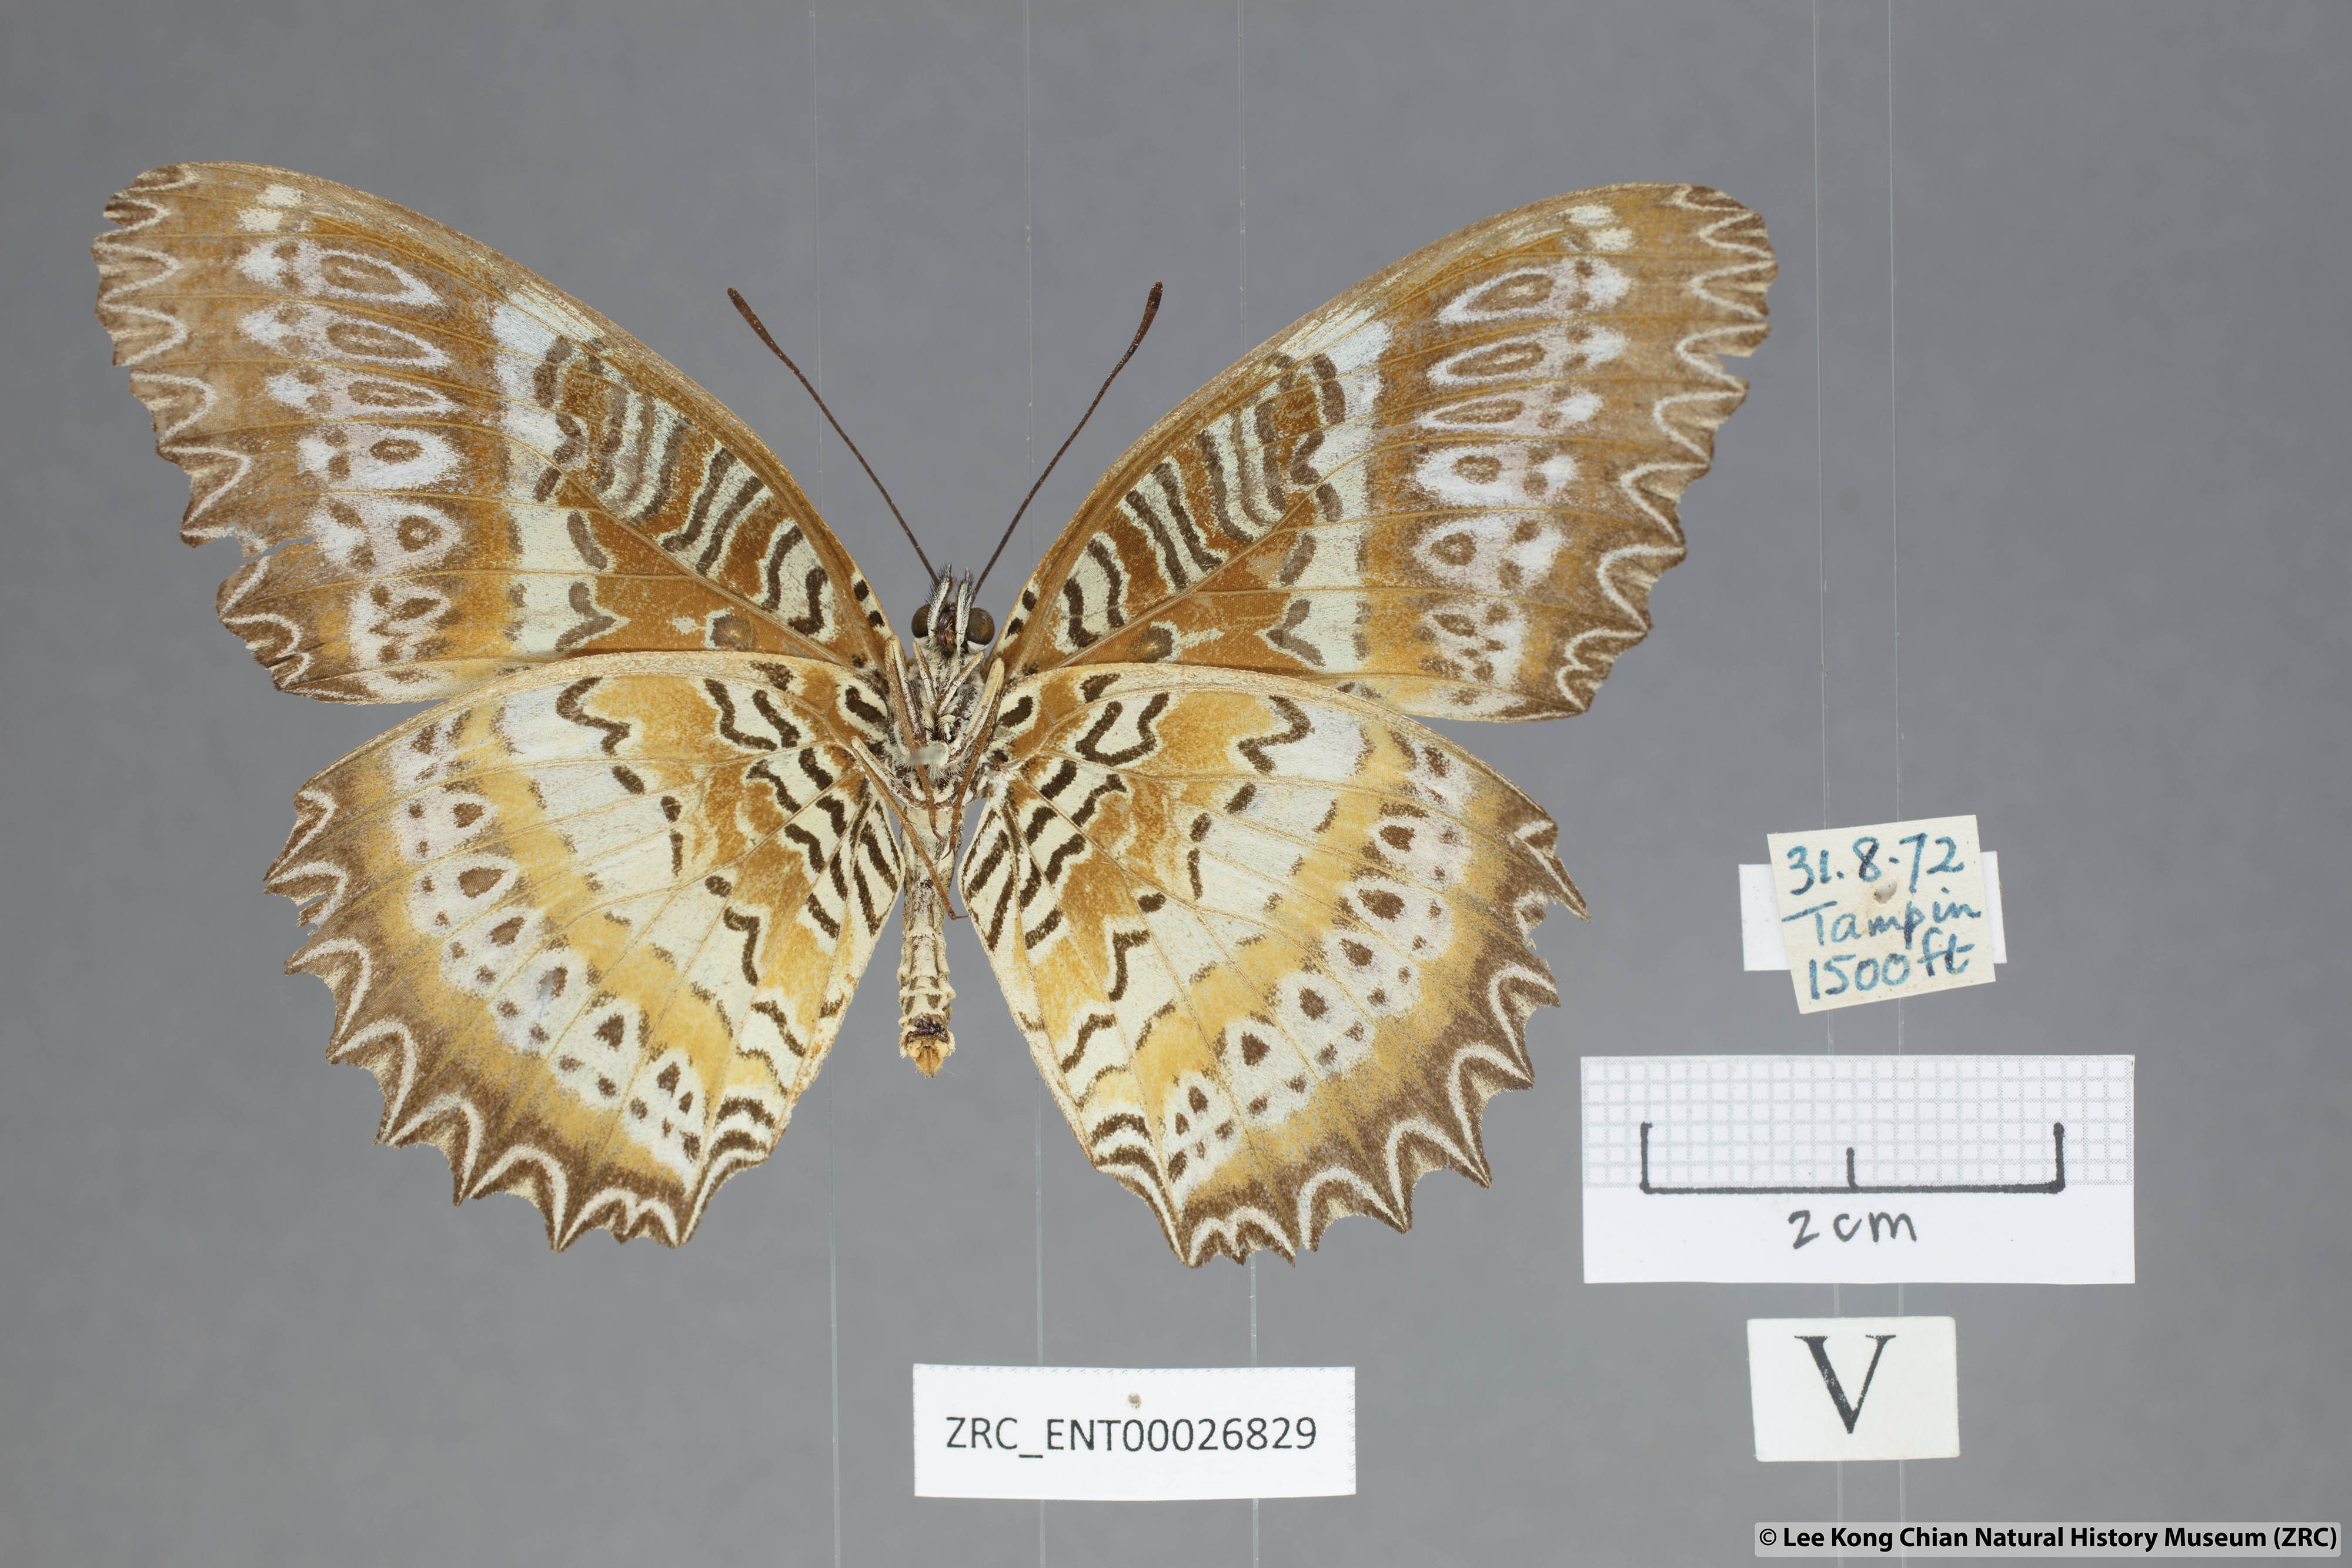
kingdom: Animalia
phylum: Arthropoda
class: Insecta
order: Lepidoptera
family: Nymphalidae
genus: Cethosia
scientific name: Cethosia biblis
